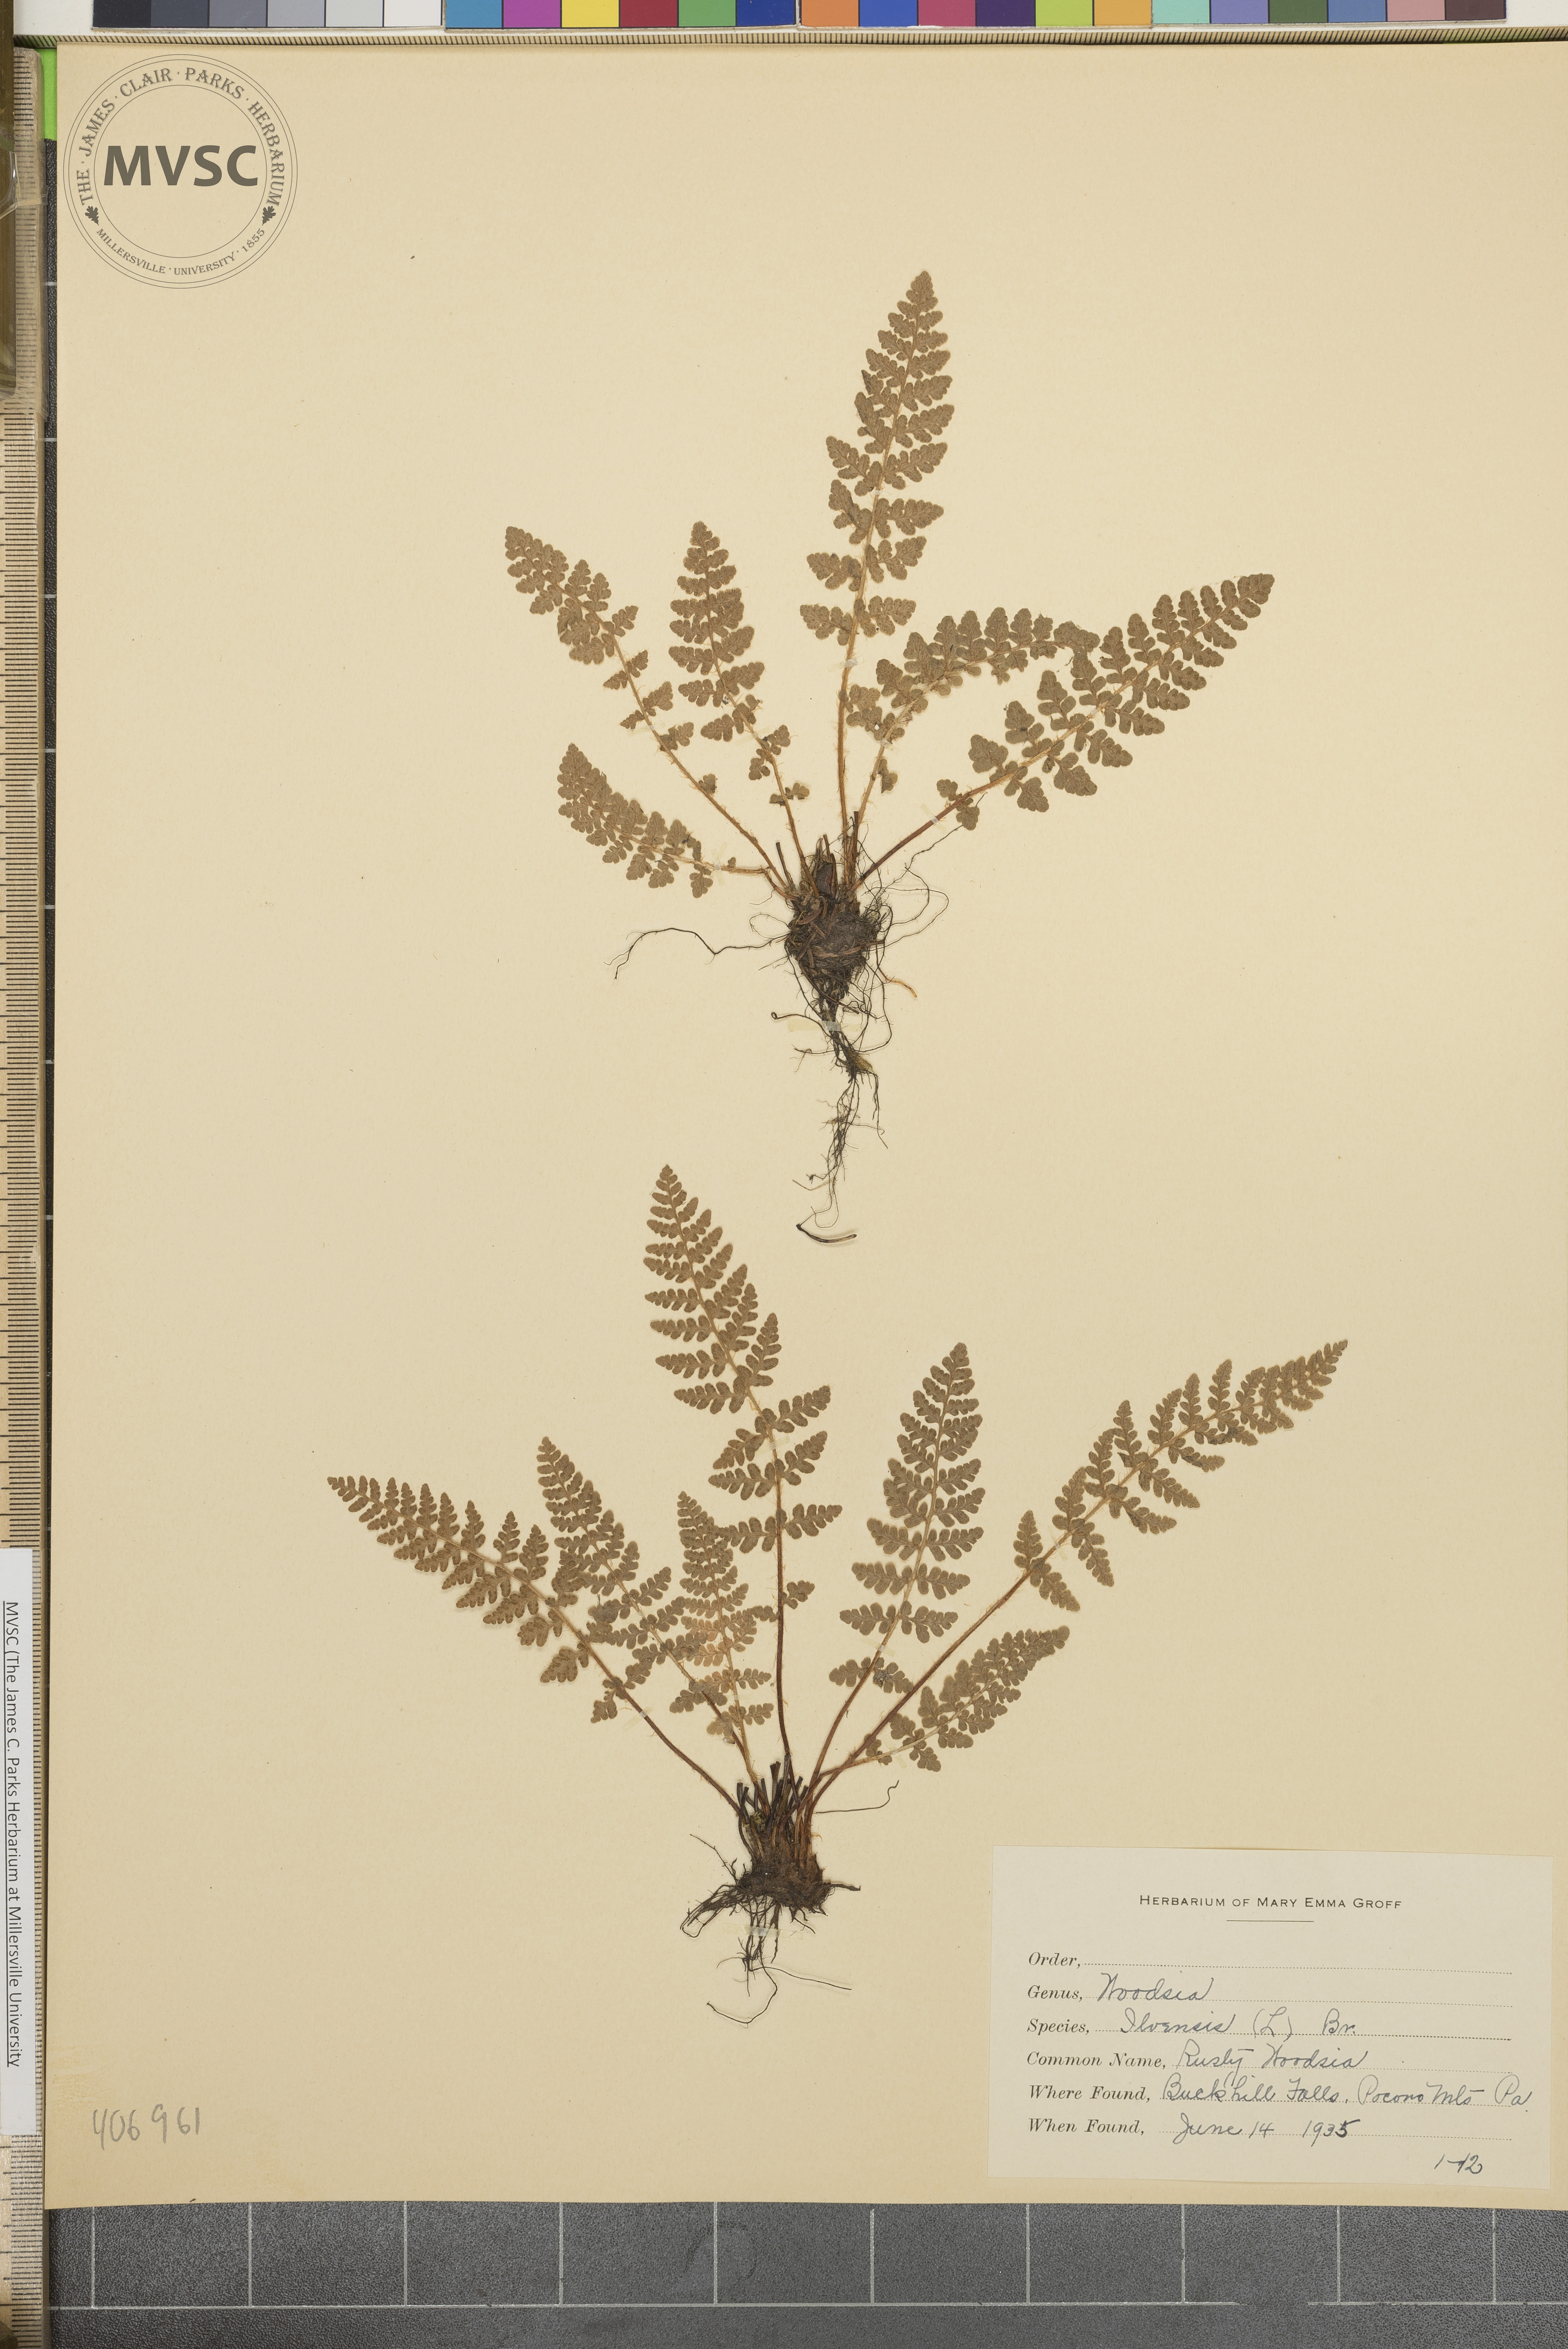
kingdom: Plantae
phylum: Tracheophyta
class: Polypodiopsida
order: Polypodiales
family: Woodsiaceae
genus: Woodsia
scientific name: Woodsia ilvensis
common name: Fragrant woodsia
